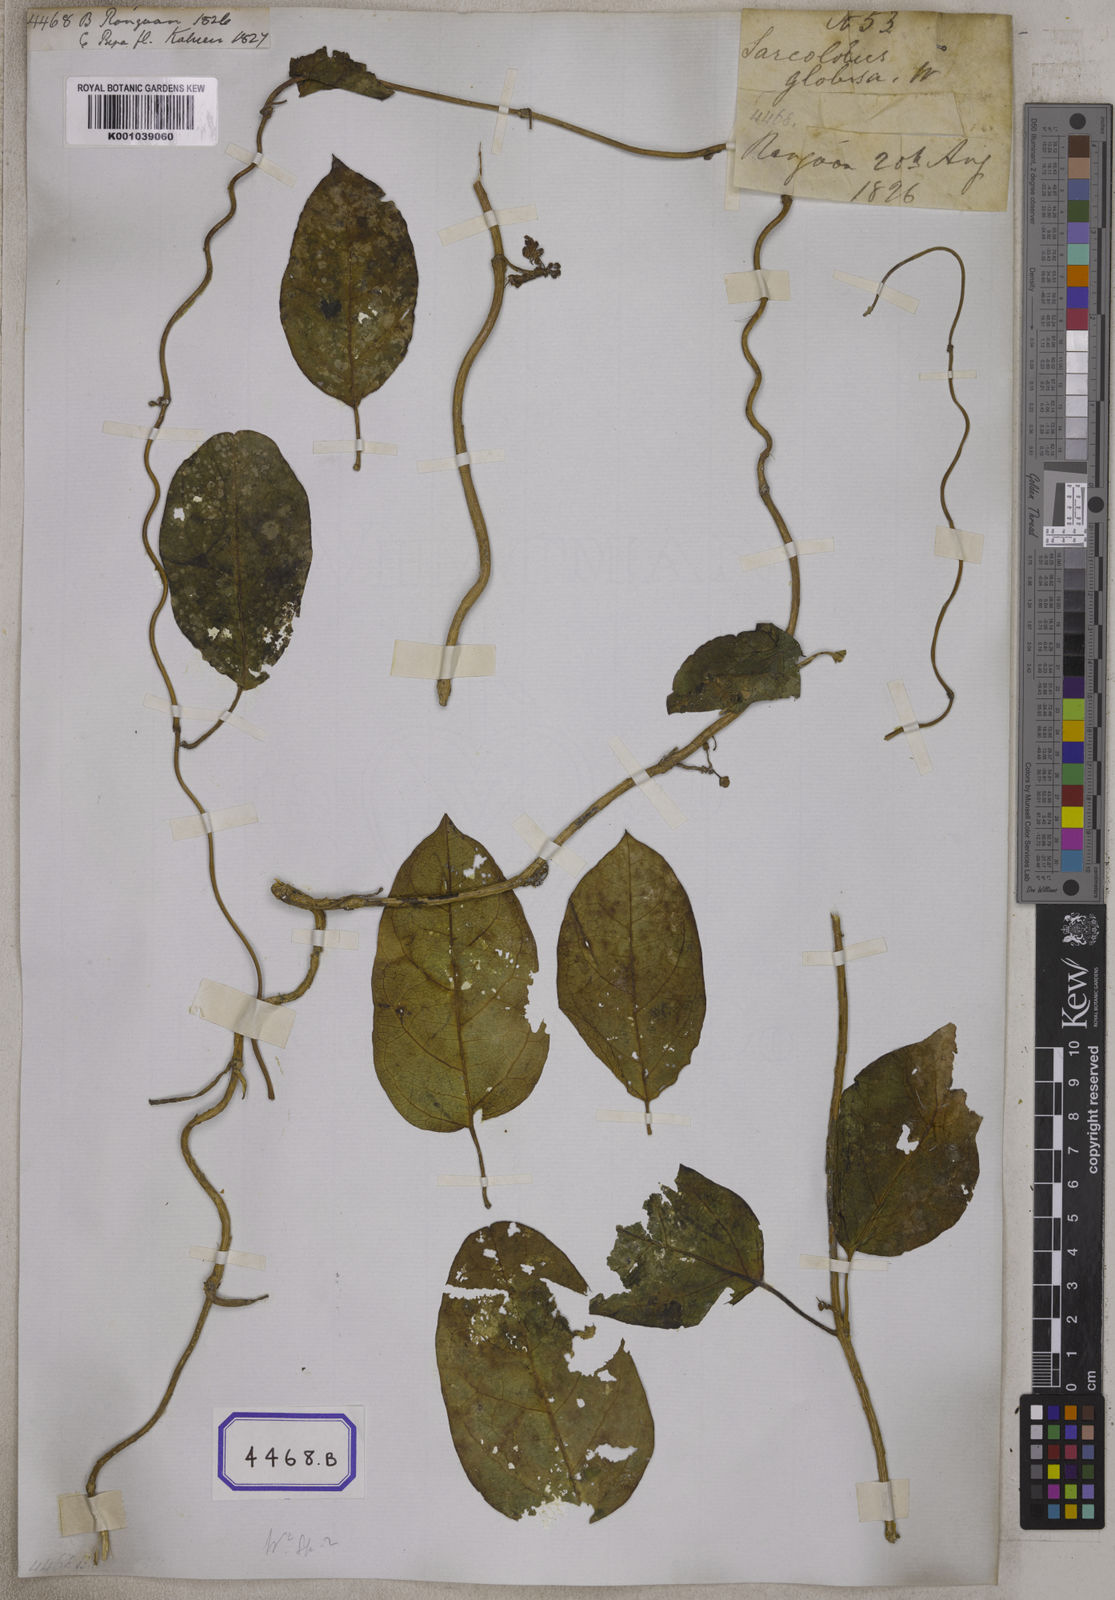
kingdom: Plantae
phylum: Tracheophyta
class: Magnoliopsida
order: Gentianales
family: Apocynaceae
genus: Sarcolobus
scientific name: Sarcolobus globosus
